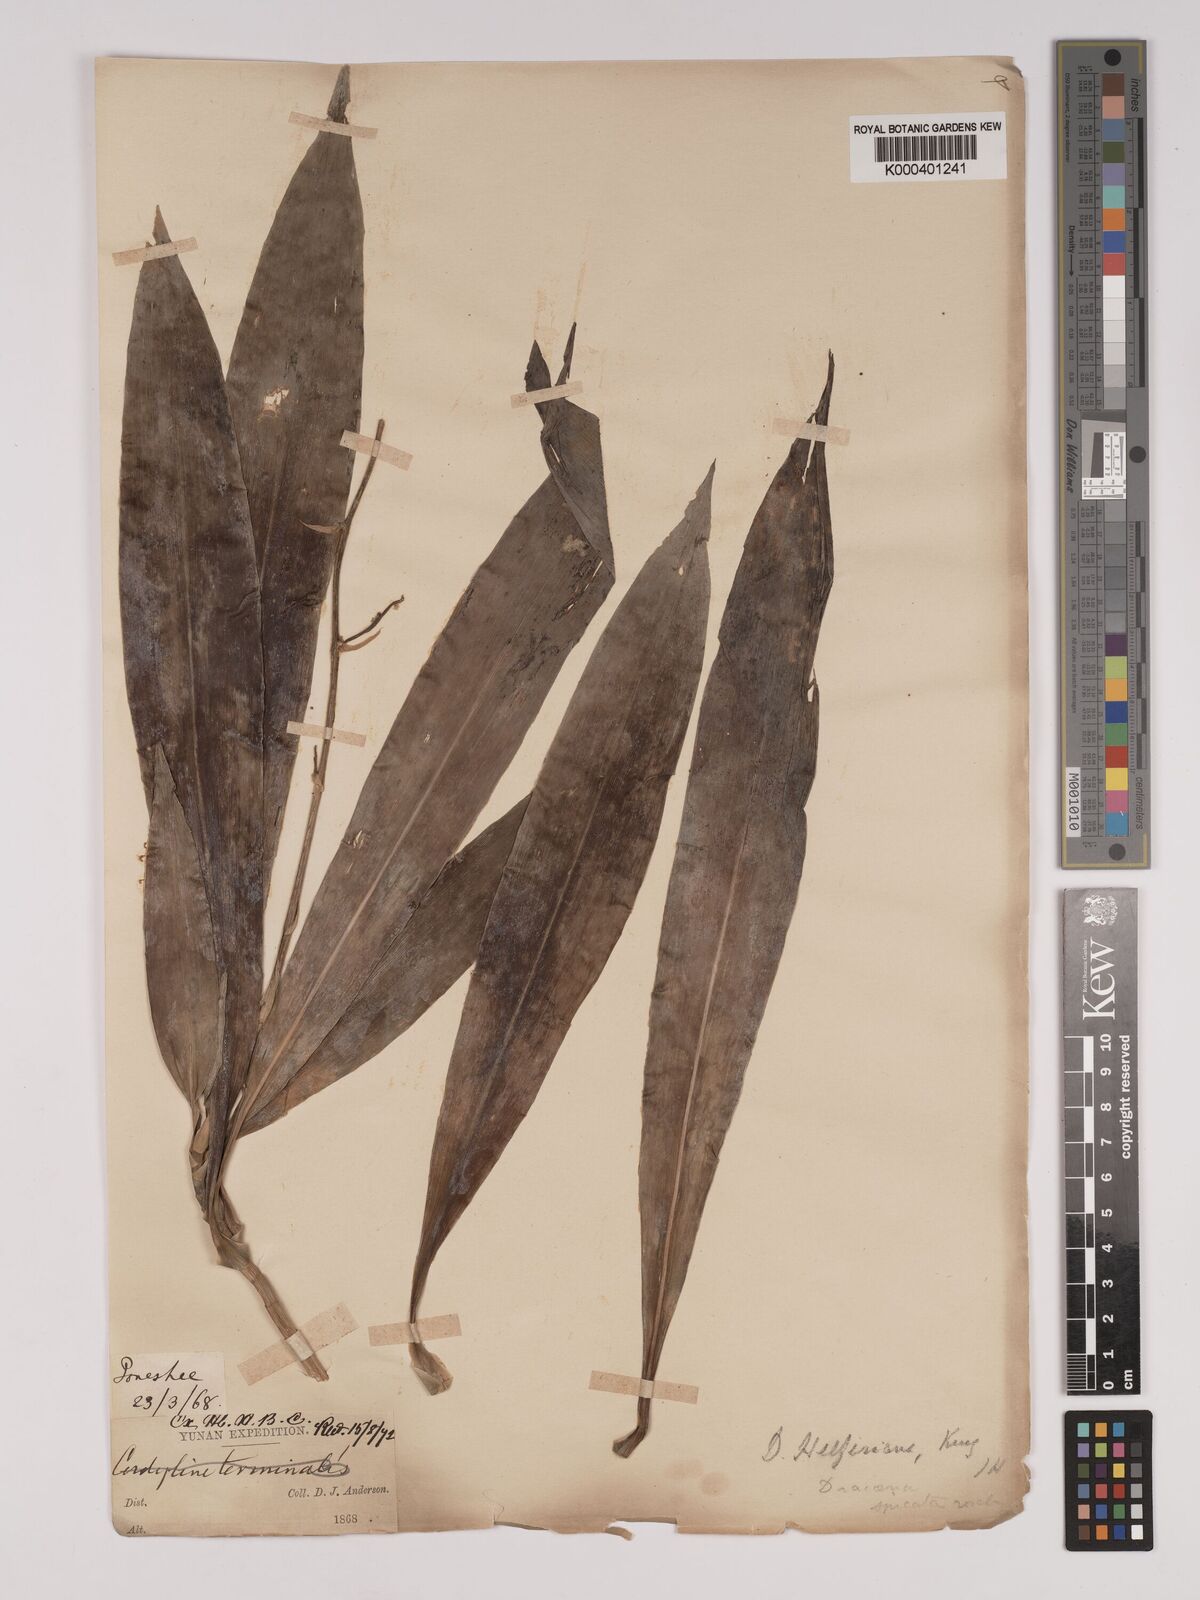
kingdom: Plantae
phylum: Tracheophyta
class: Liliopsida
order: Asparagales
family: Asparagaceae
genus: Dracaena
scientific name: Dracaena griffithii
